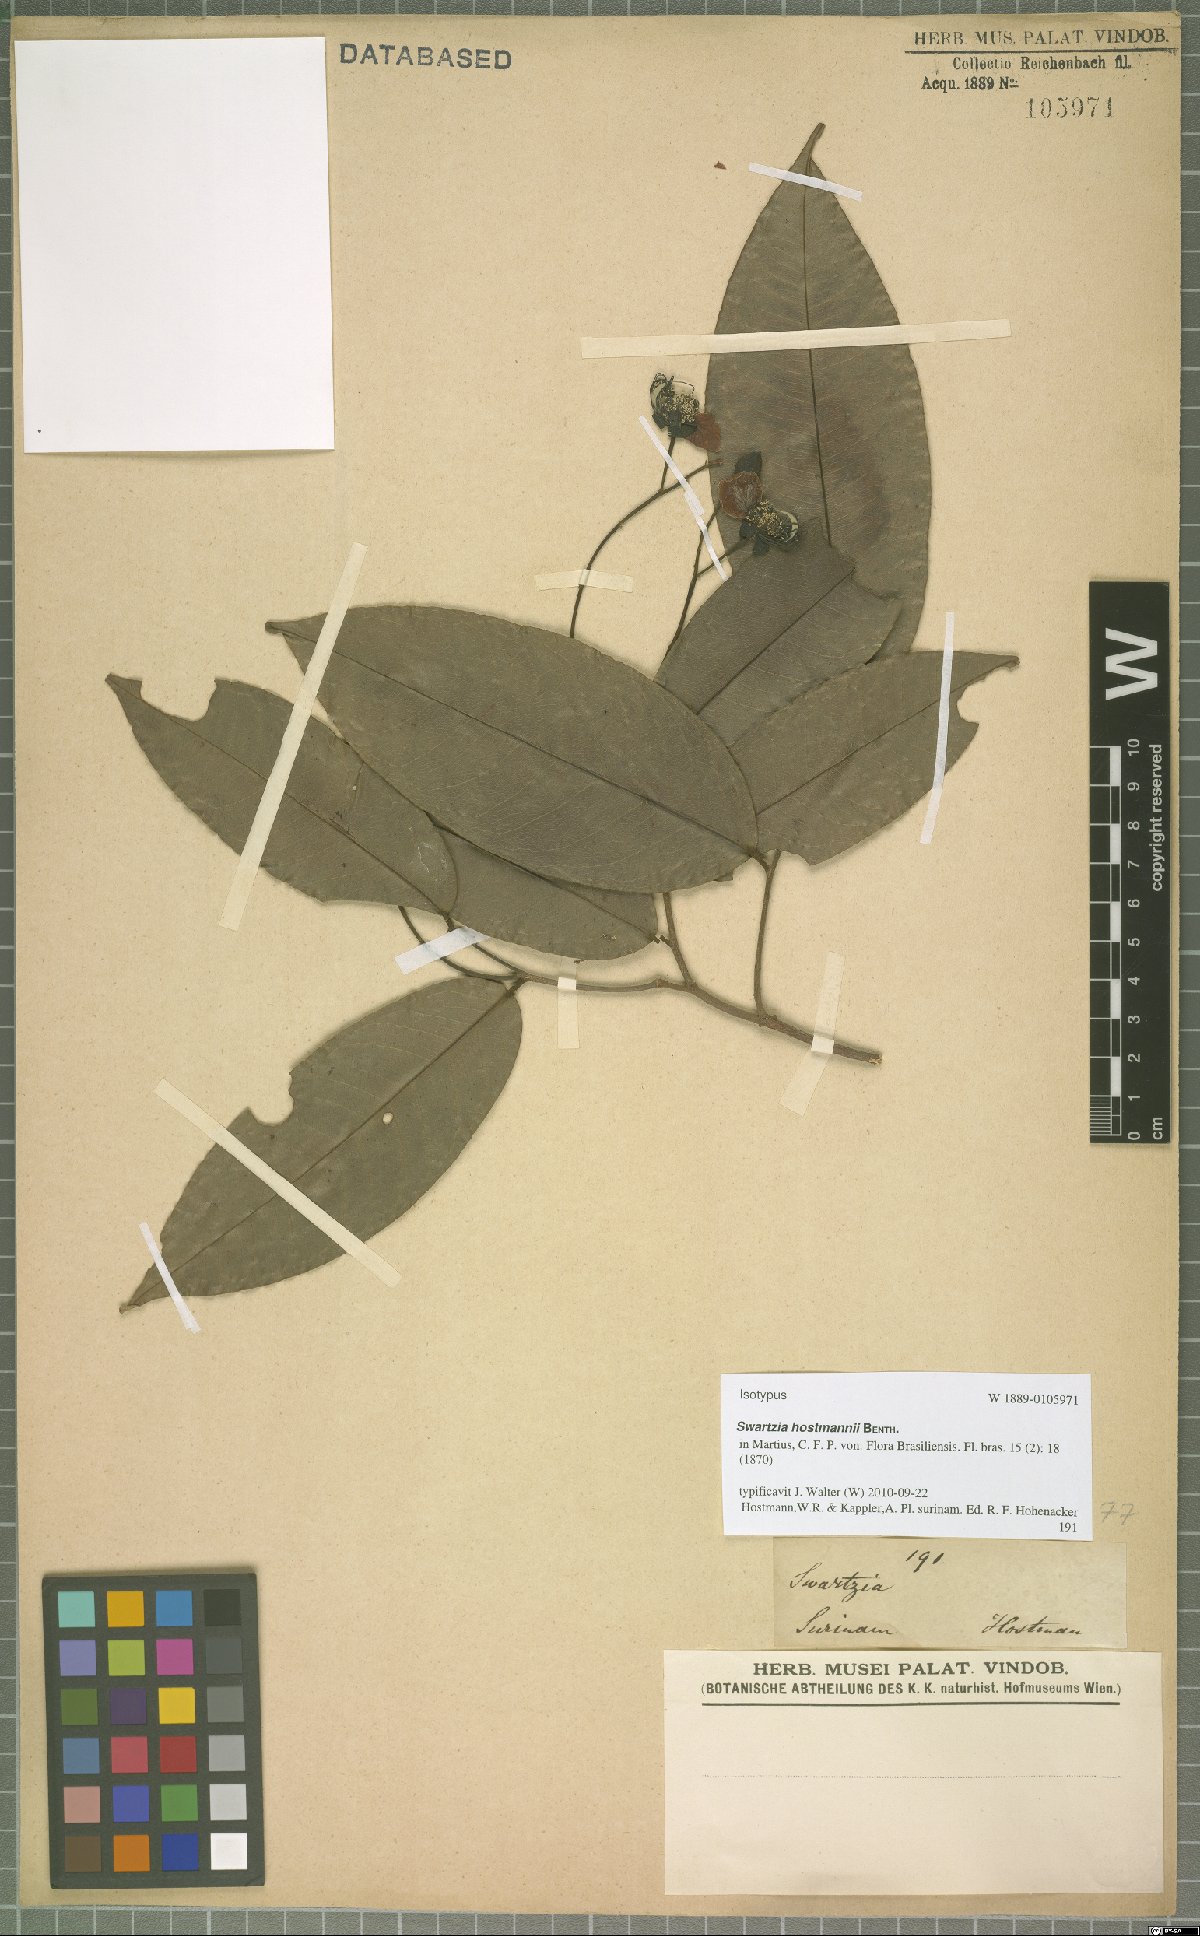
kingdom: Plantae
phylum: Tracheophyta
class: Magnoliopsida
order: Fabales
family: Fabaceae
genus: Swartzia
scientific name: Swartzia hostmannii
